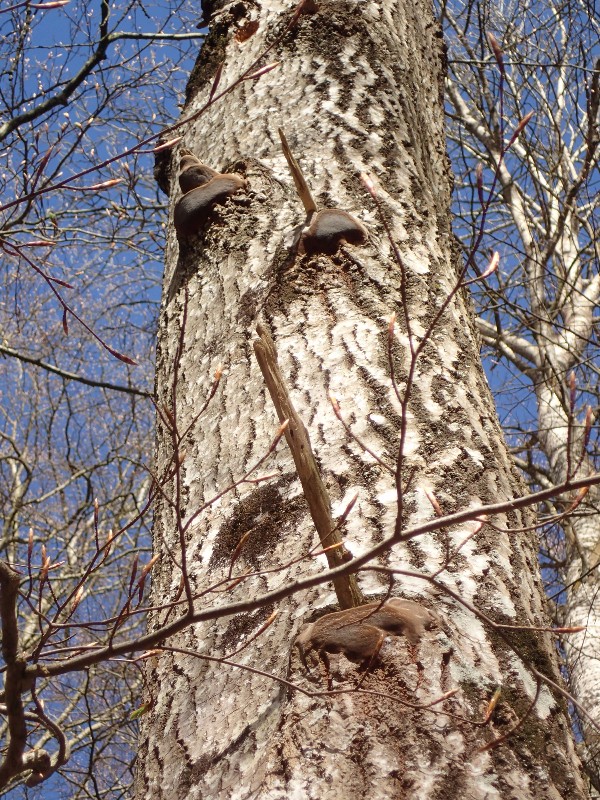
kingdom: Fungi
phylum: Basidiomycota
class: Agaricomycetes
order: Hymenochaetales
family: Hymenochaetaceae
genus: Phellinus
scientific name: Phellinus tremulae
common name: aspe-ildporesvamp
